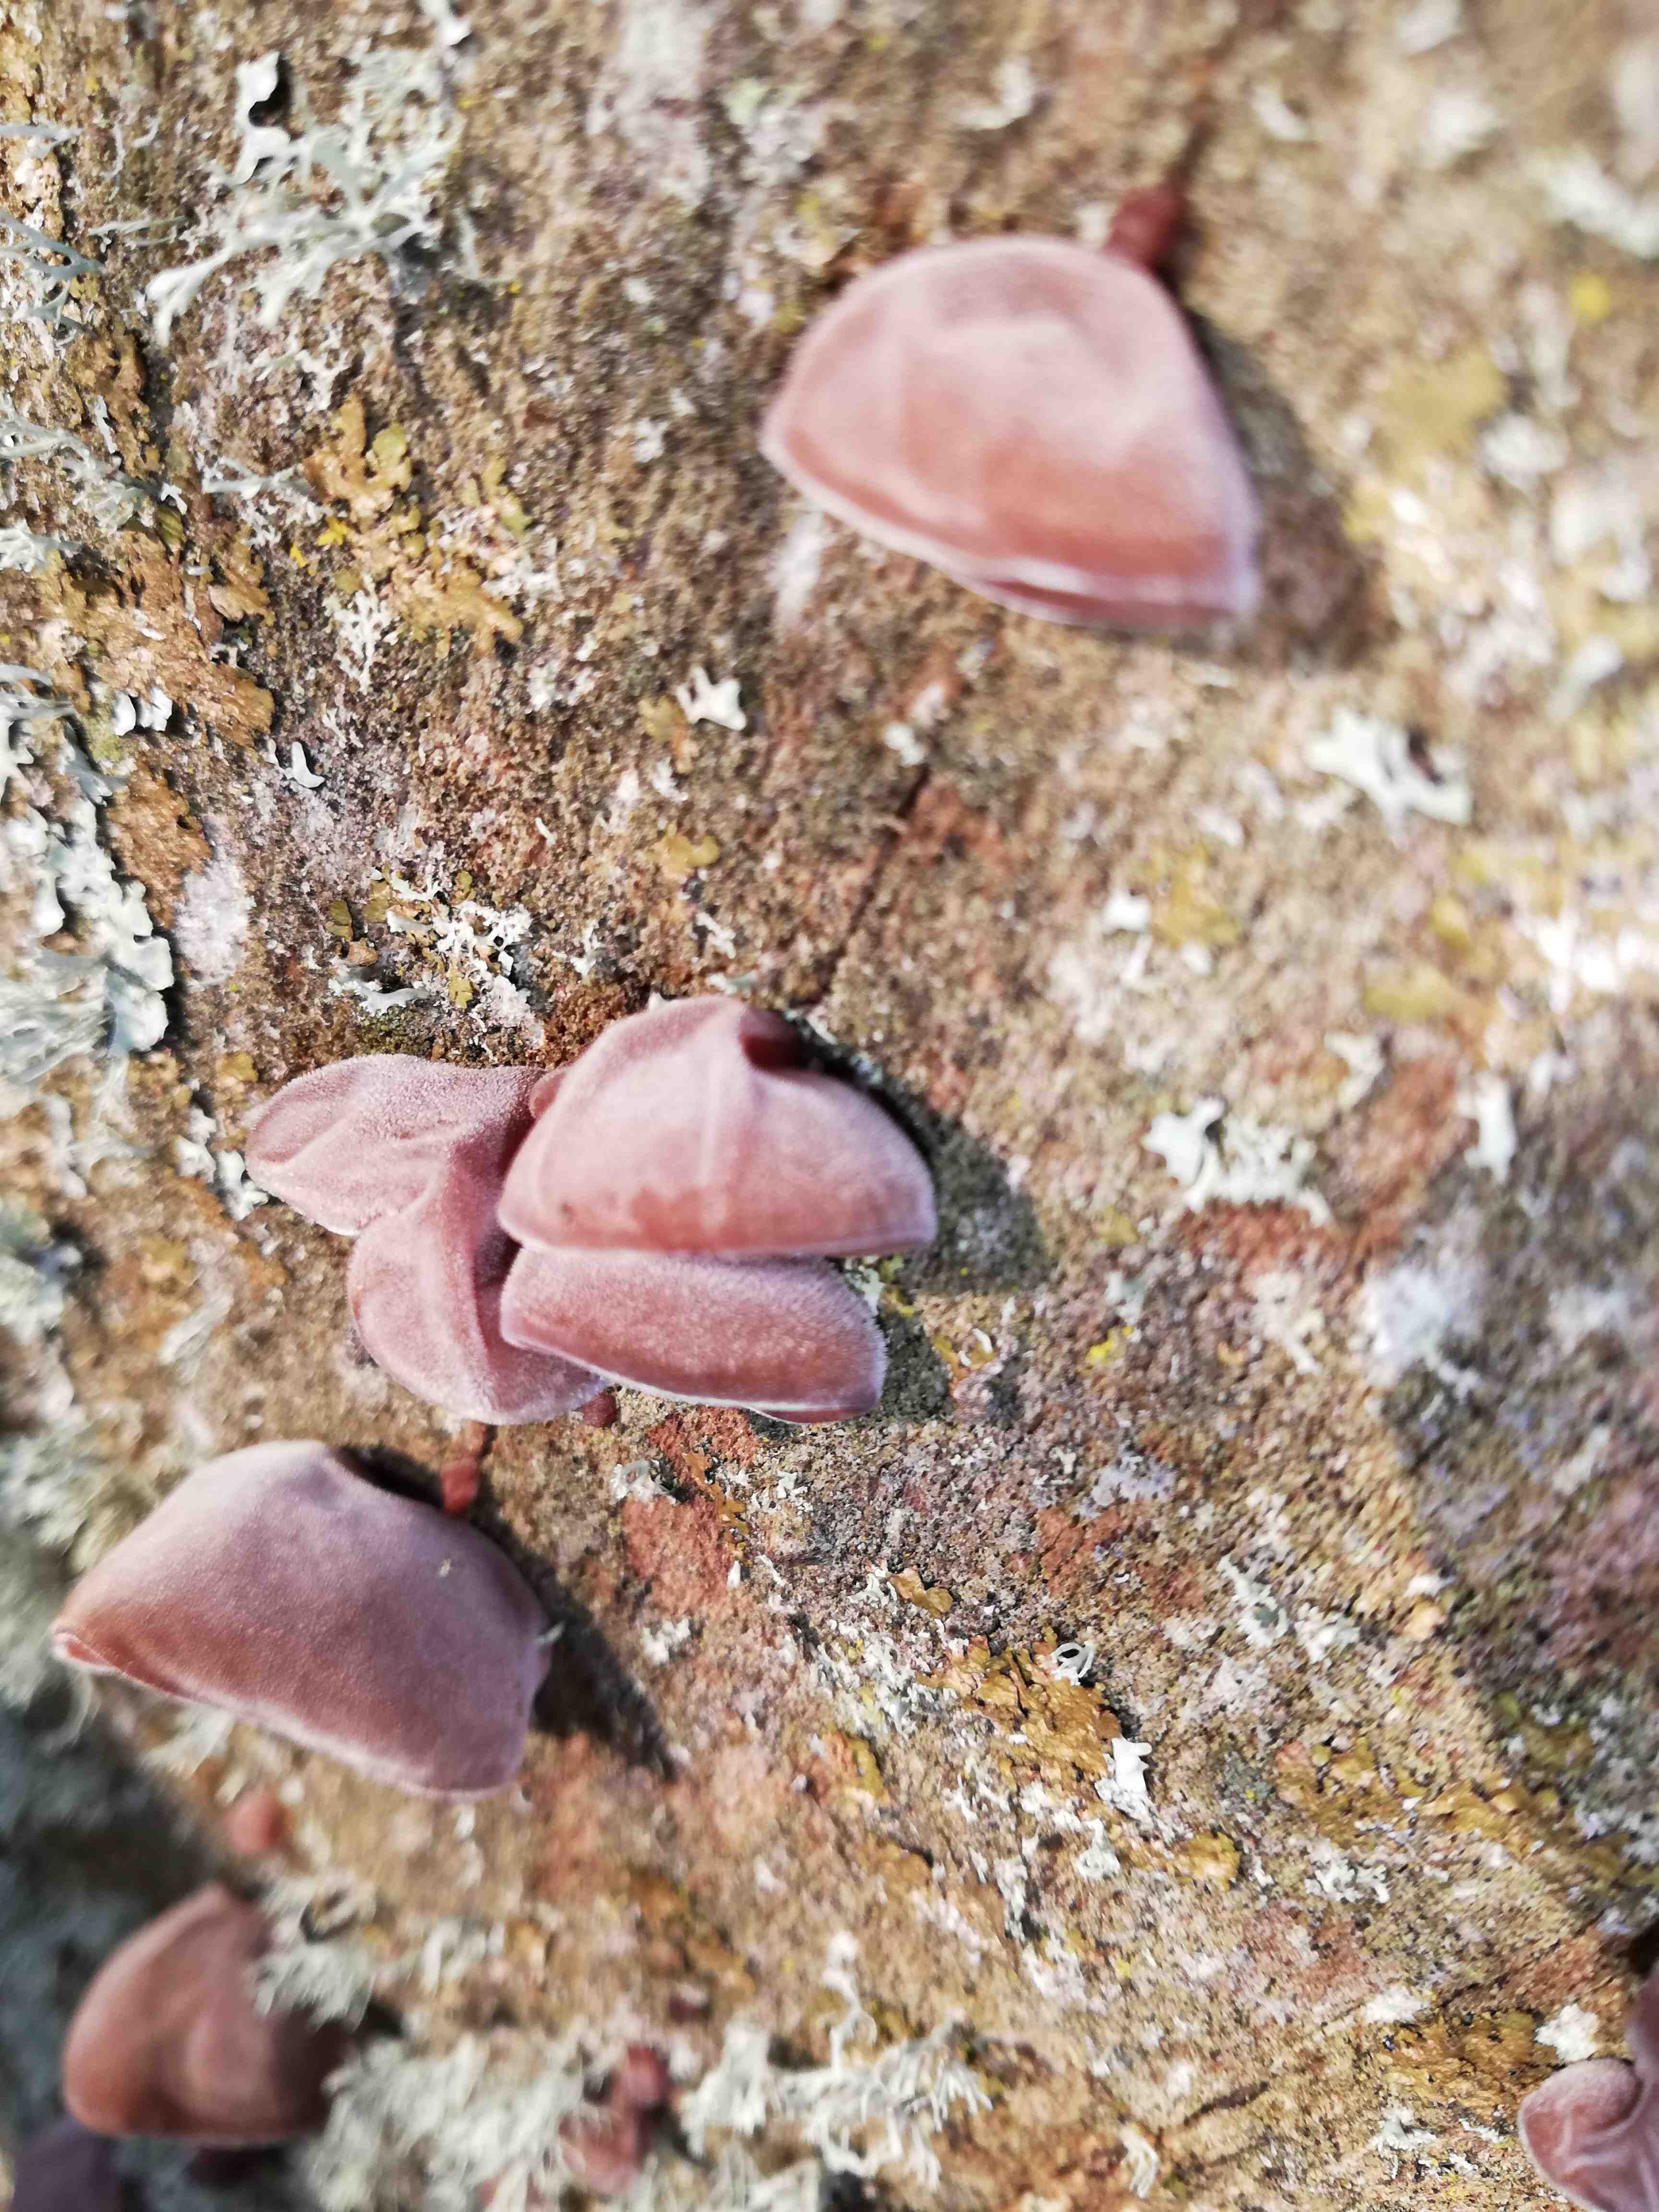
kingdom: Fungi
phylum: Basidiomycota
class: Agaricomycetes
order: Auriculariales
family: Auriculariaceae
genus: Auricularia
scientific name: Auricularia auricula-judae
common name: almindelig judasøre
